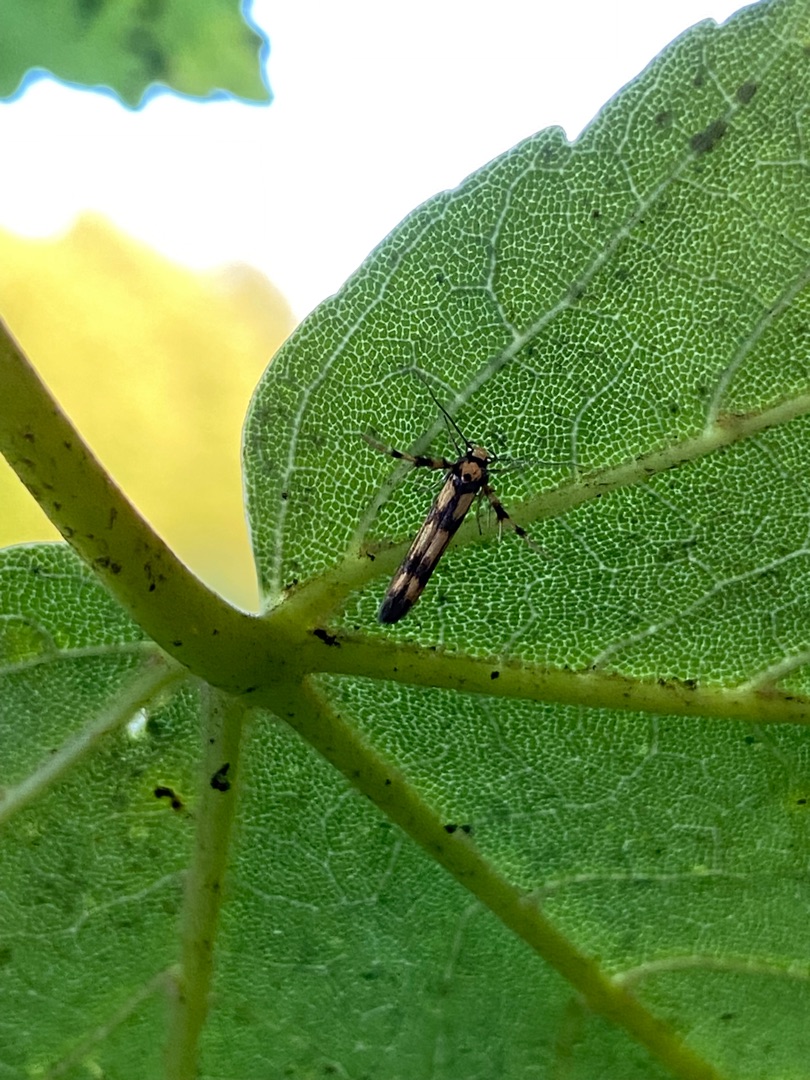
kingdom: Animalia
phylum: Arthropoda
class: Insecta
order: Lepidoptera
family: Stathmopodidae
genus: Stathmopoda
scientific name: Stathmopoda pedella
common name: Strittende ellemøl
